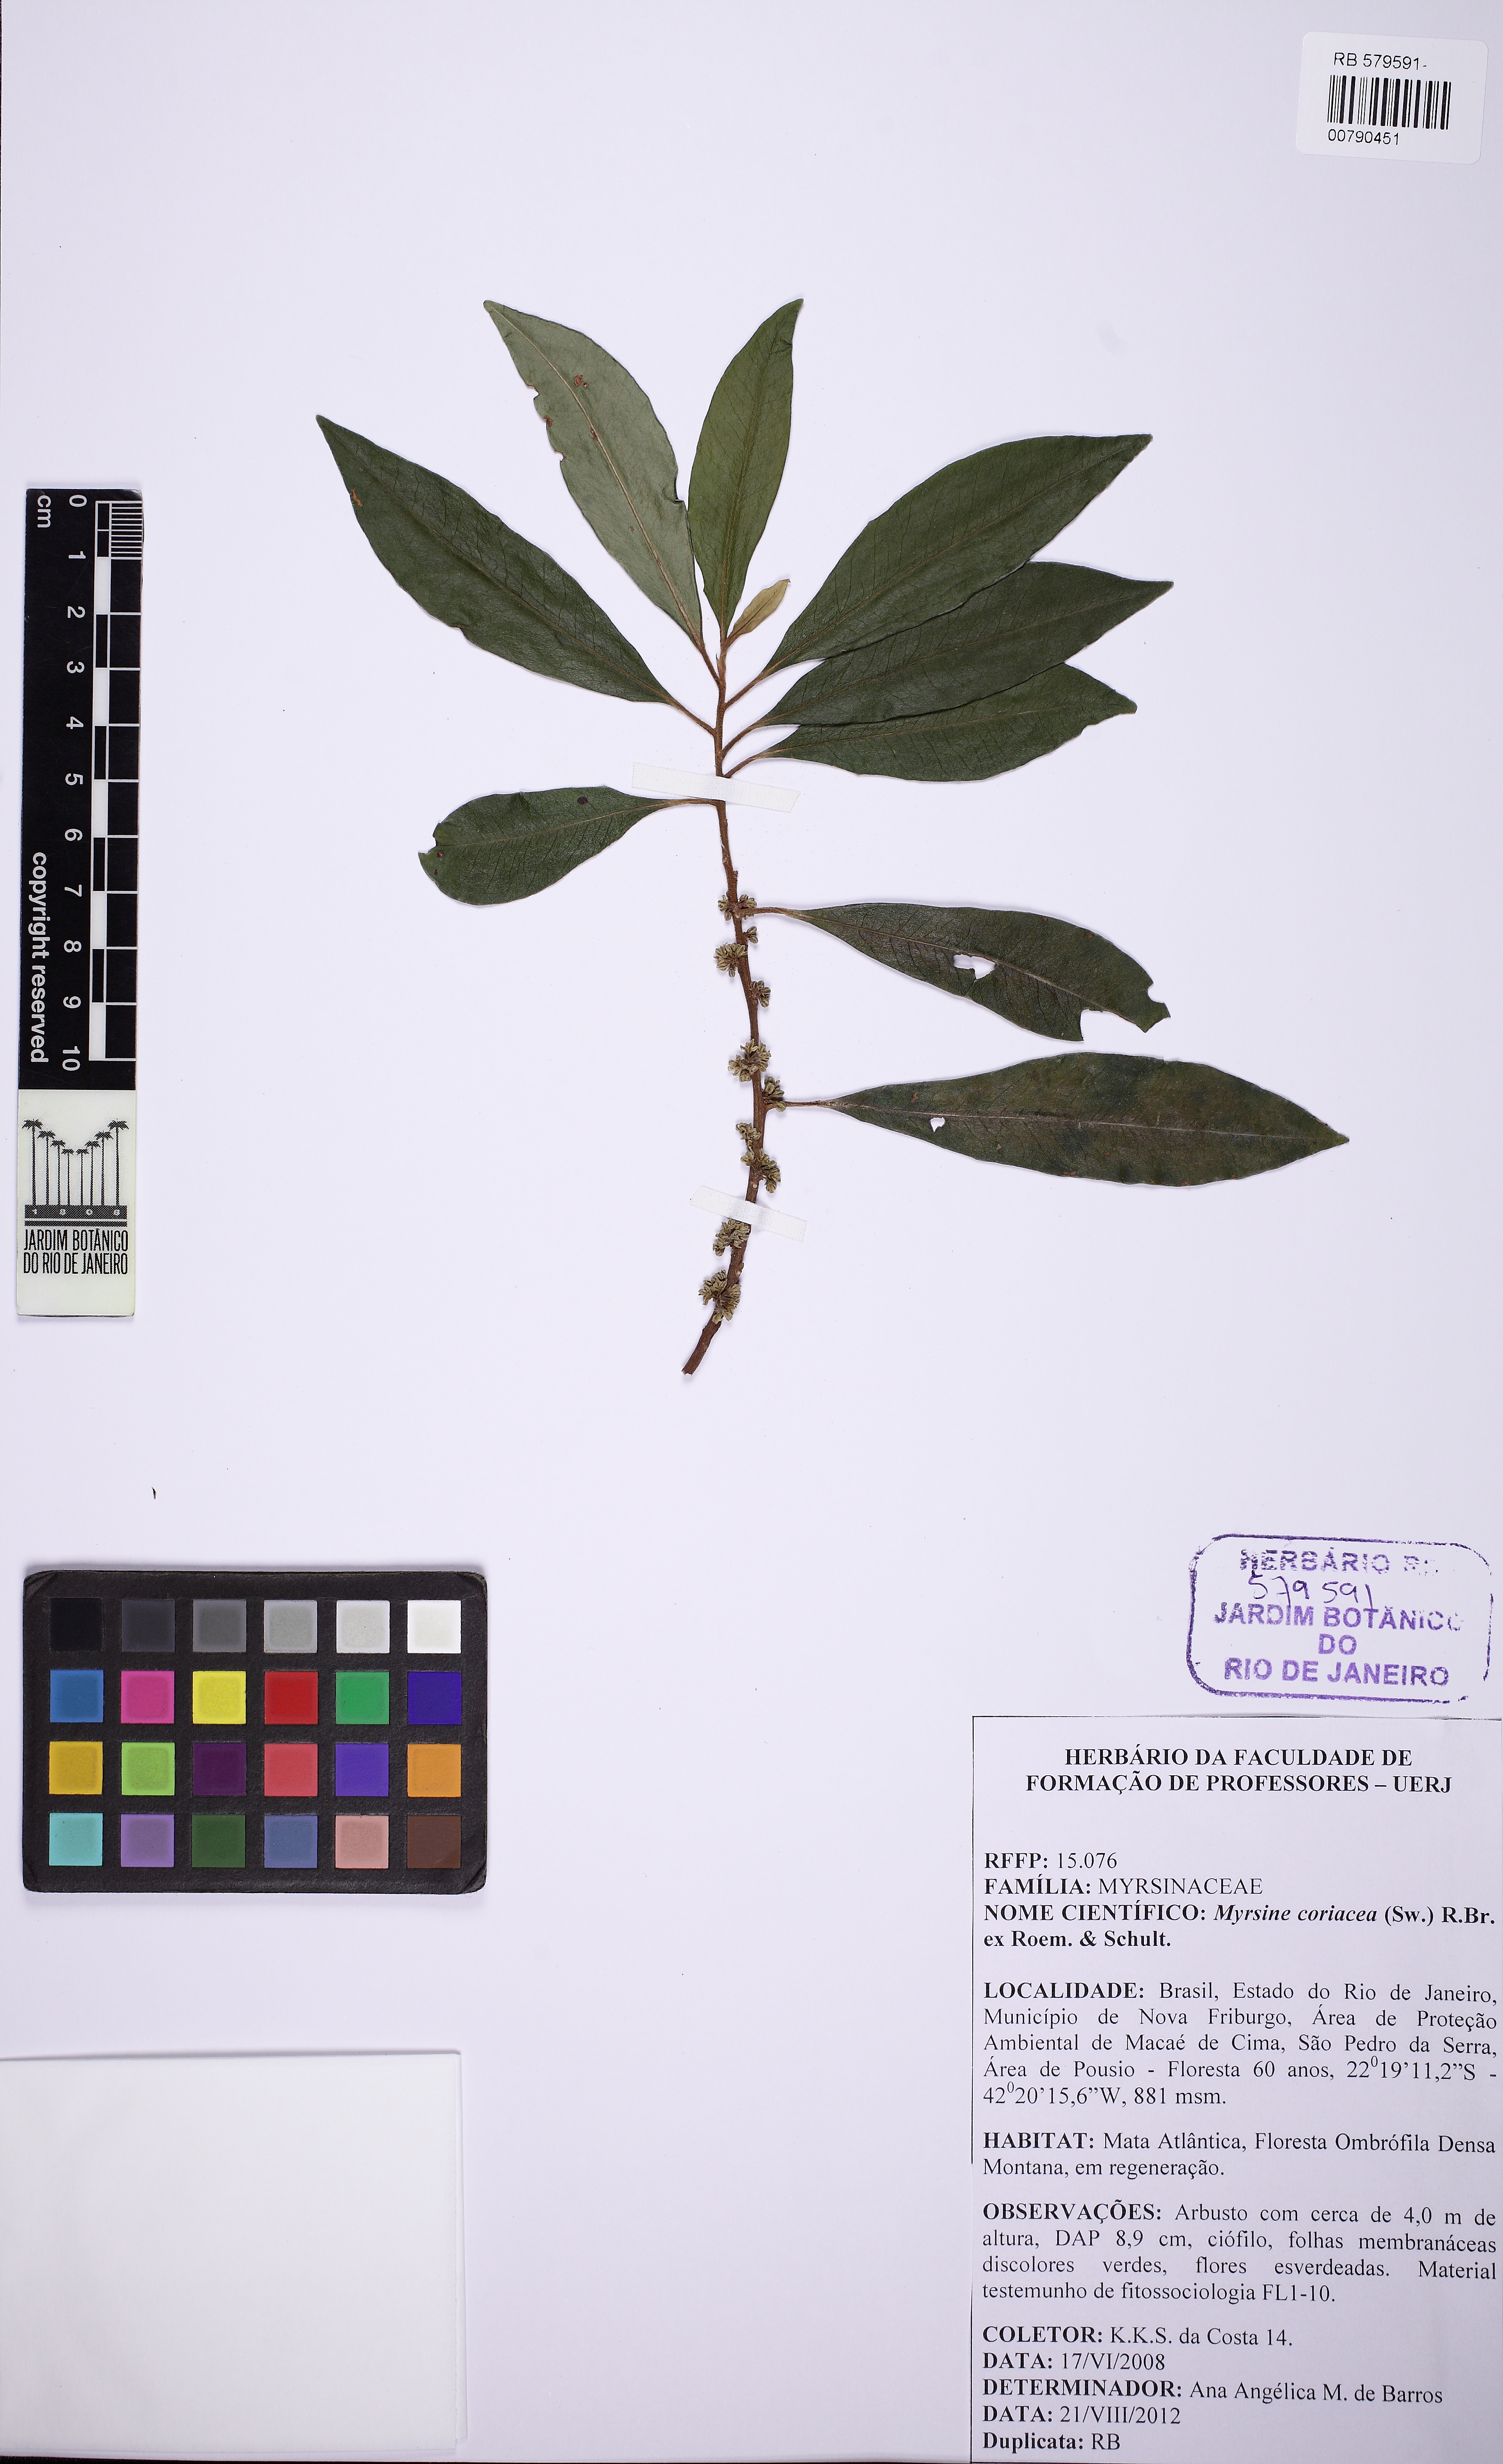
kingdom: Plantae
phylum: Tracheophyta
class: Magnoliopsida
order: Ericales
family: Primulaceae
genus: Myrsine
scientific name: Myrsine coriacea
